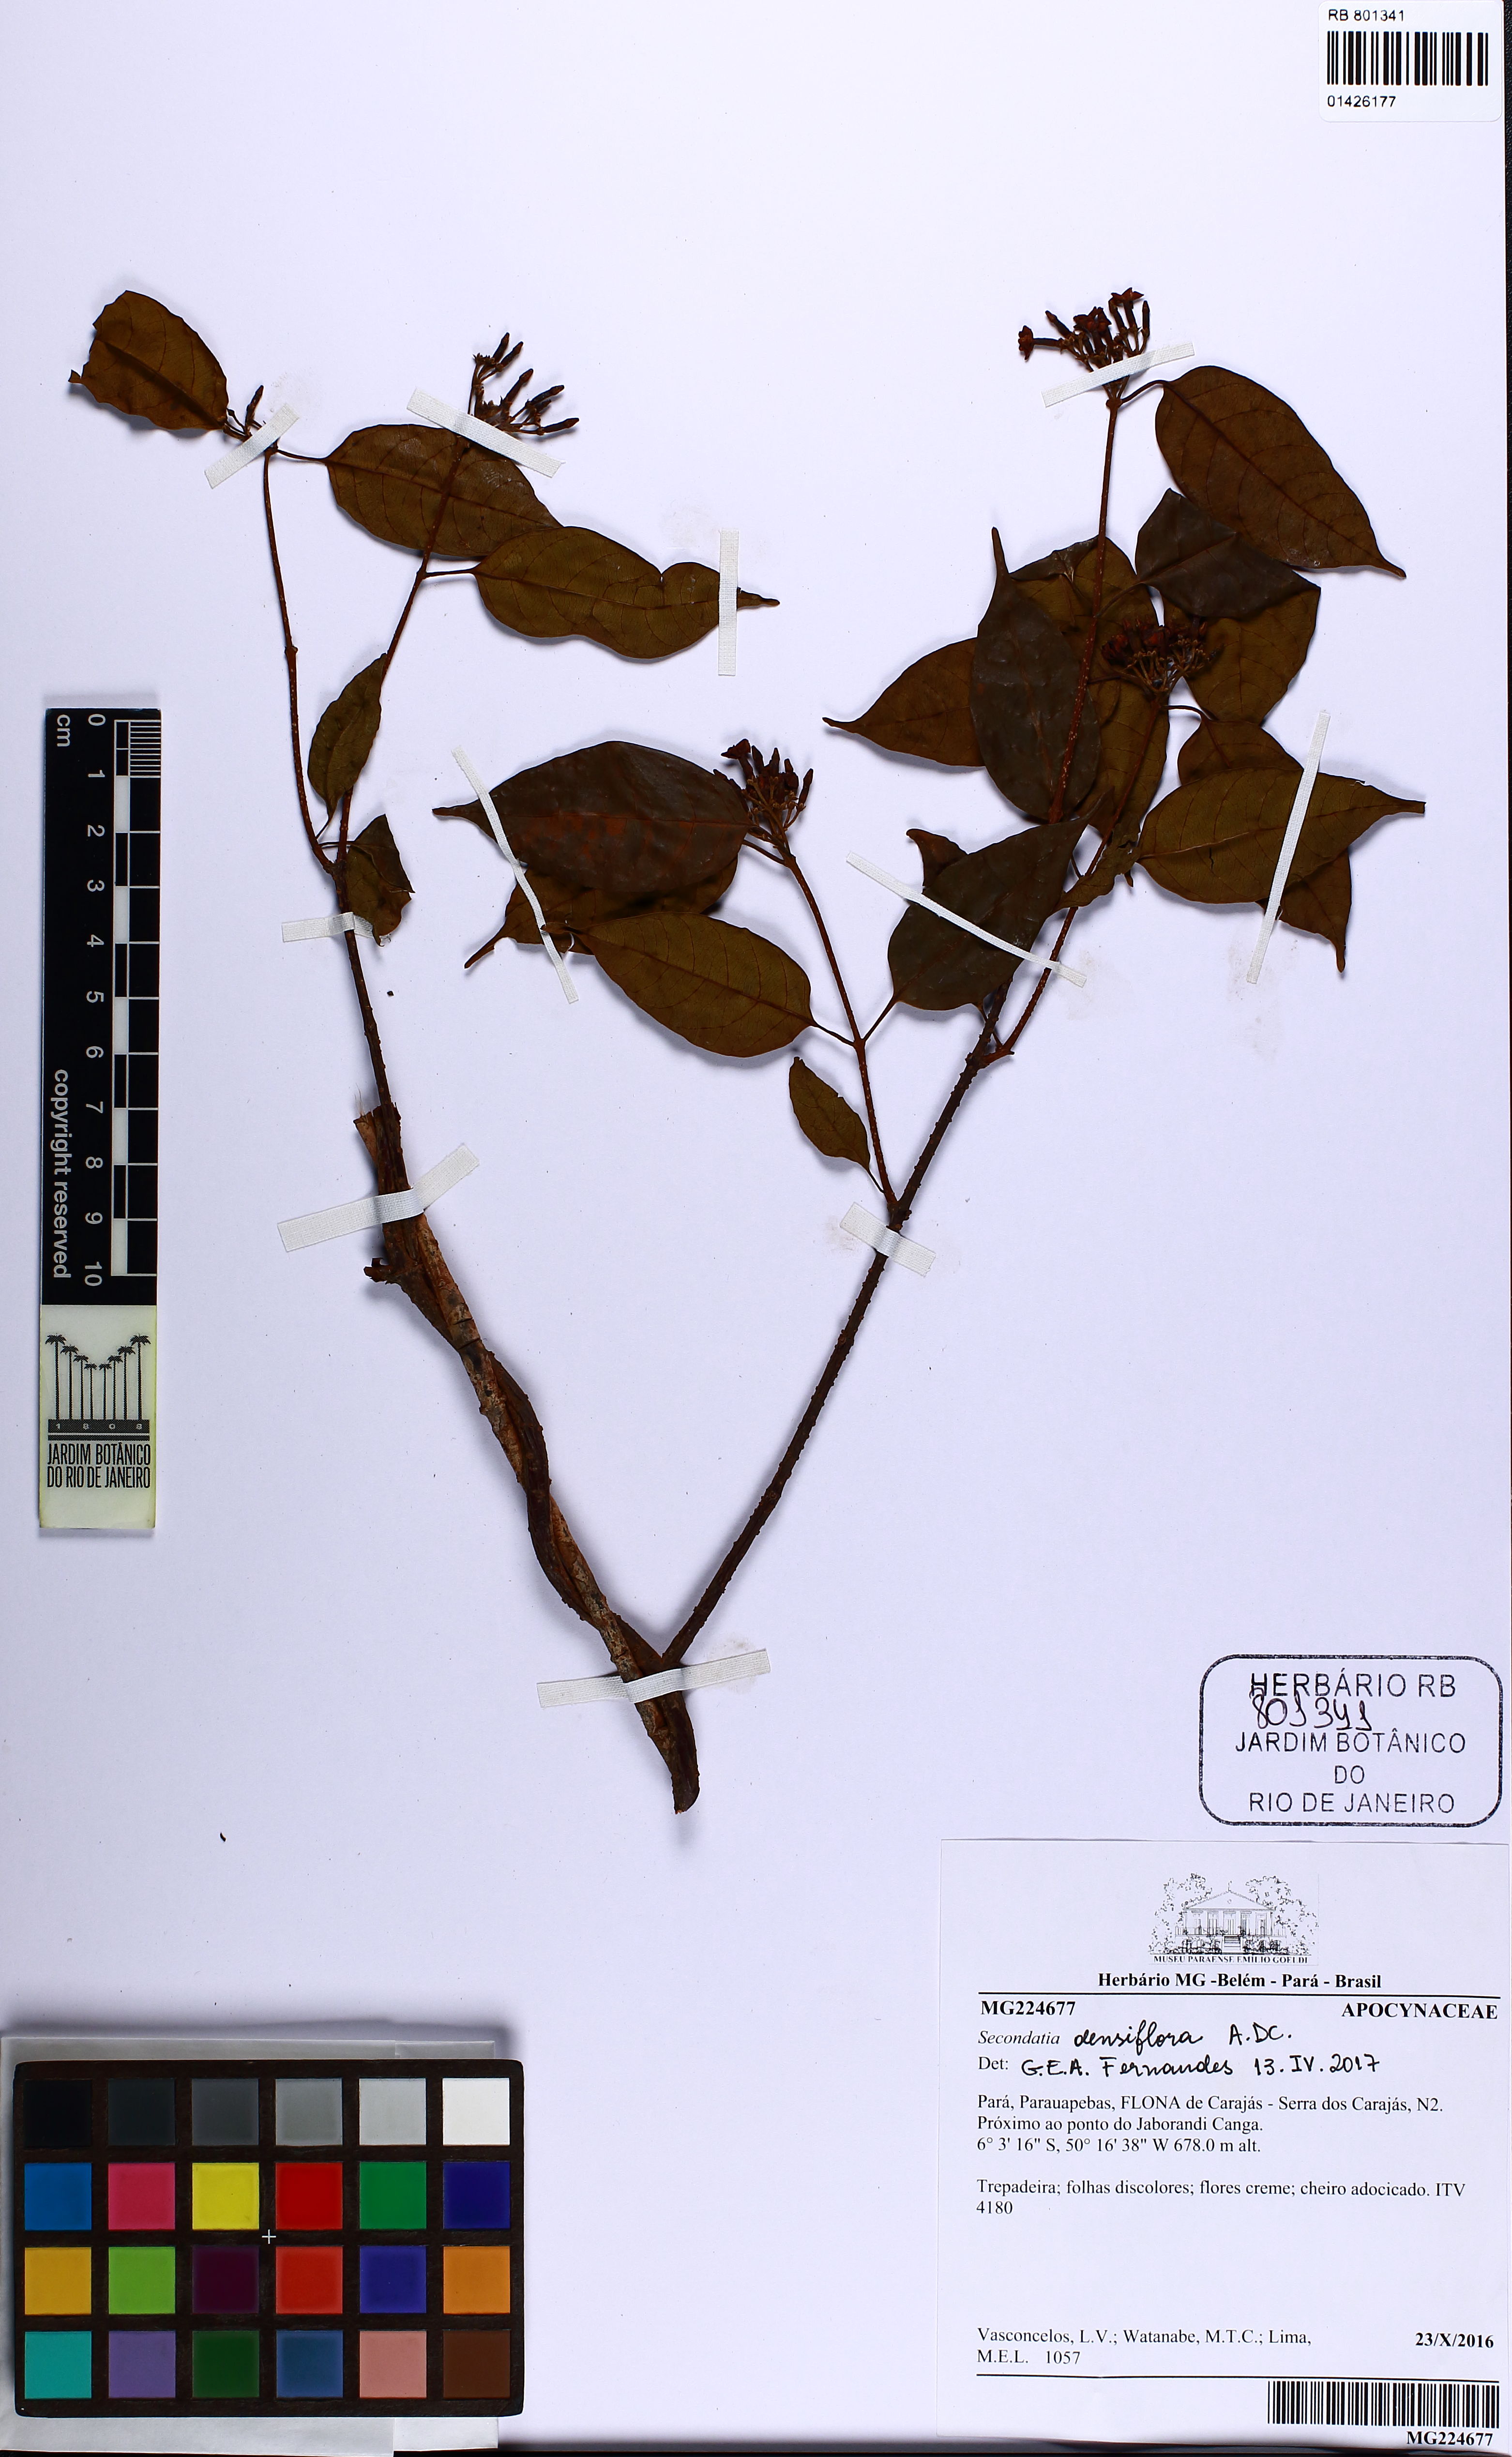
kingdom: Plantae
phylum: Tracheophyta
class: Magnoliopsida
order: Gentianales
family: Apocynaceae
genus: Secondatia
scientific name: Secondatia densiflora
